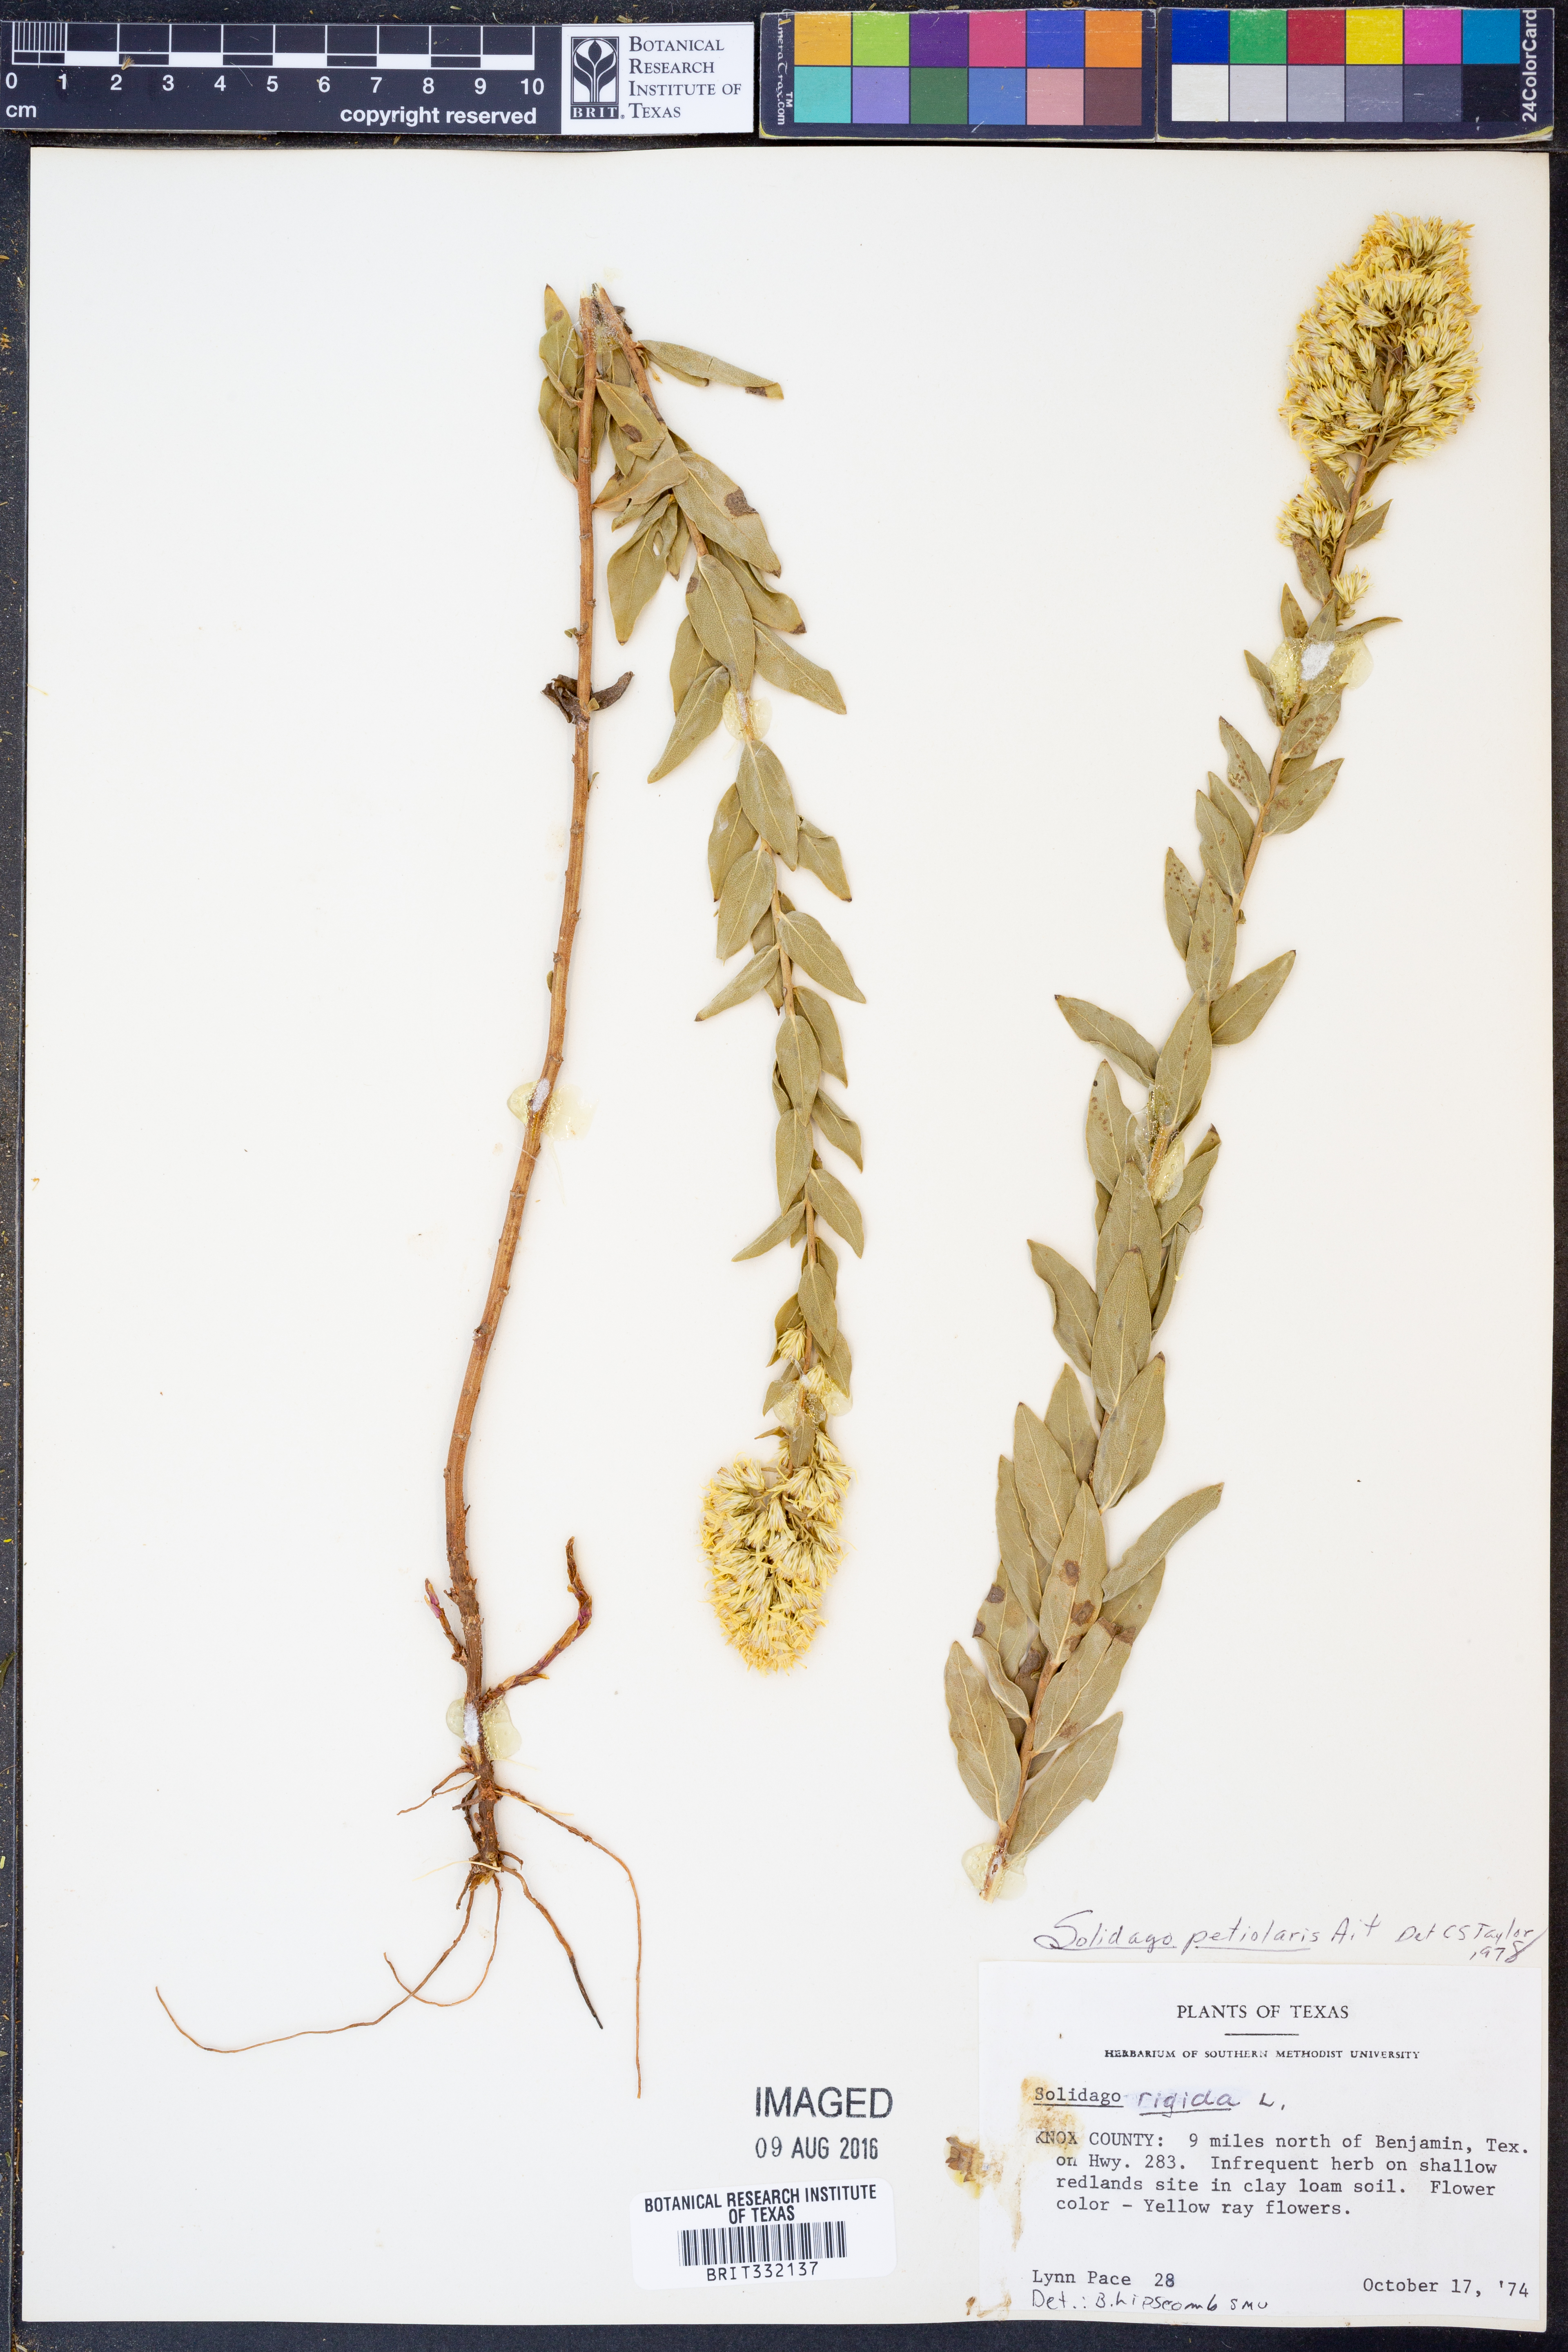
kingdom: Plantae
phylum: Tracheophyta
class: Magnoliopsida
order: Asterales
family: Asteraceae
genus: Solidago
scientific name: Solidago petiolaris
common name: Downy ragged goldenrod
